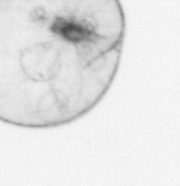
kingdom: Chromista
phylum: Myzozoa
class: Dinophyceae
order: Noctilucales
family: Noctilucaceae
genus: Noctiluca
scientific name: Noctiluca scintillans
